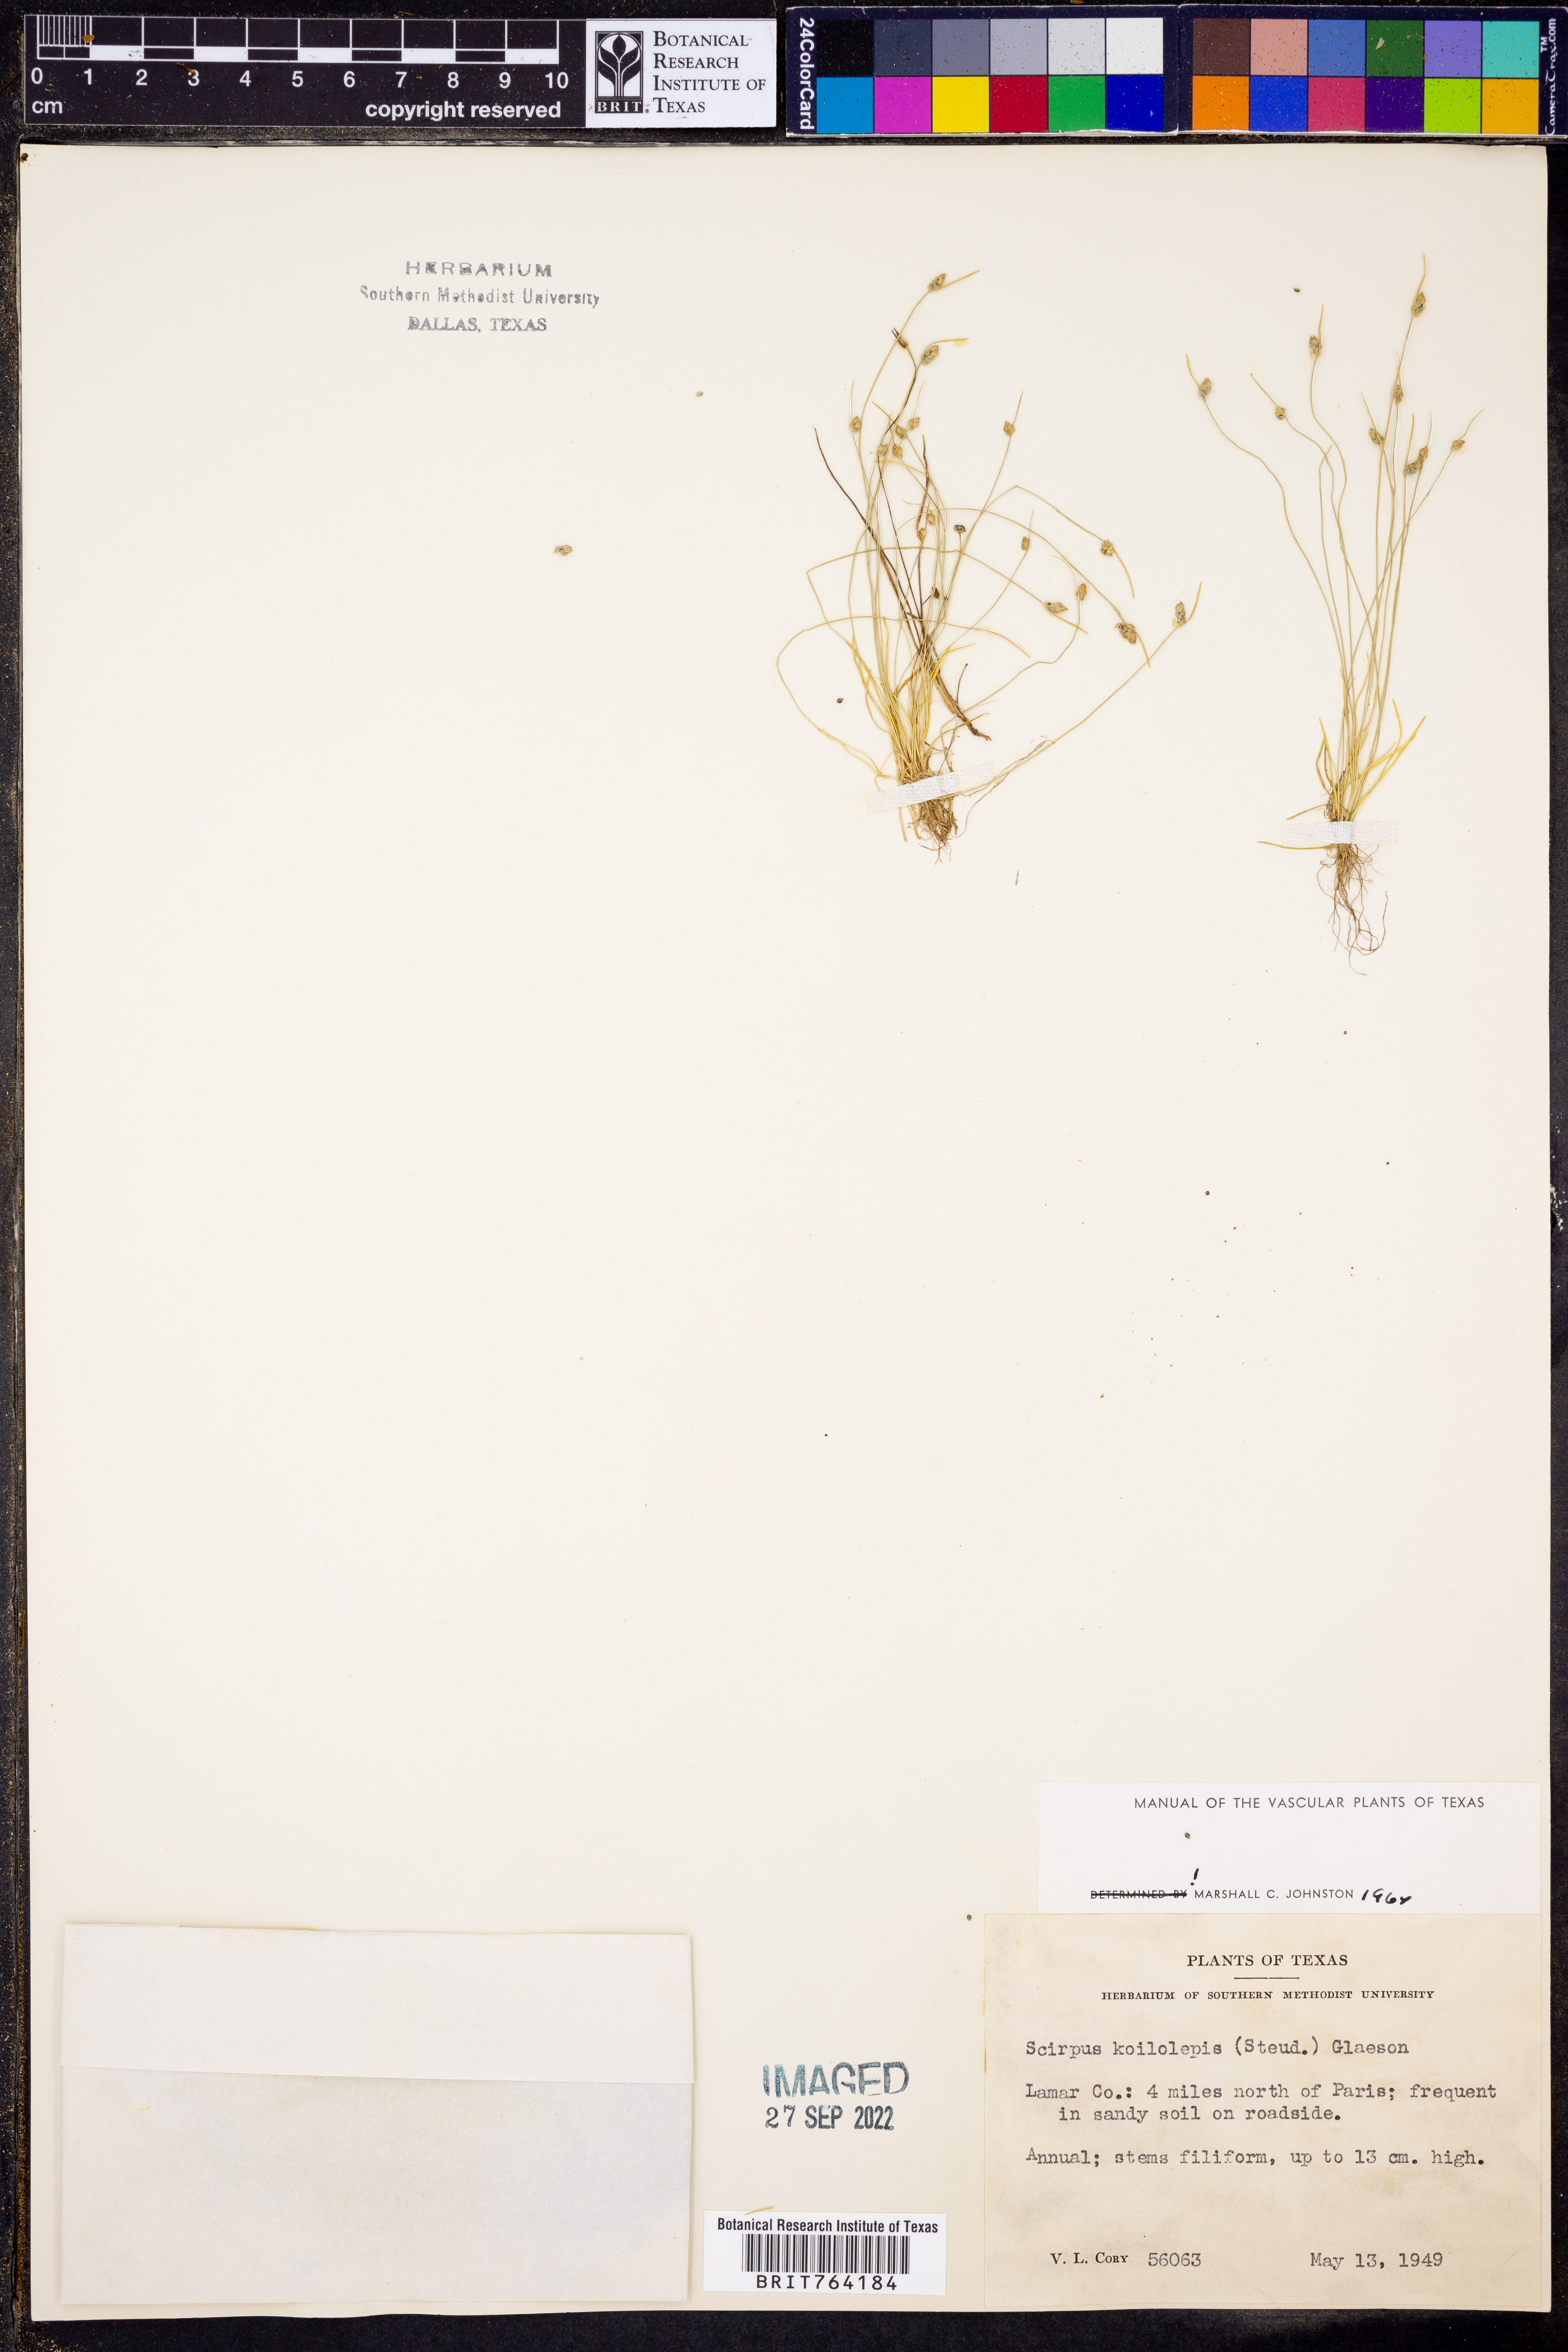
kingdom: Plantae
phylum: Tracheophyta
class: Liliopsida
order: Poales
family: Cyperaceae
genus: Isolepis
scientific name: Isolepis carinata
